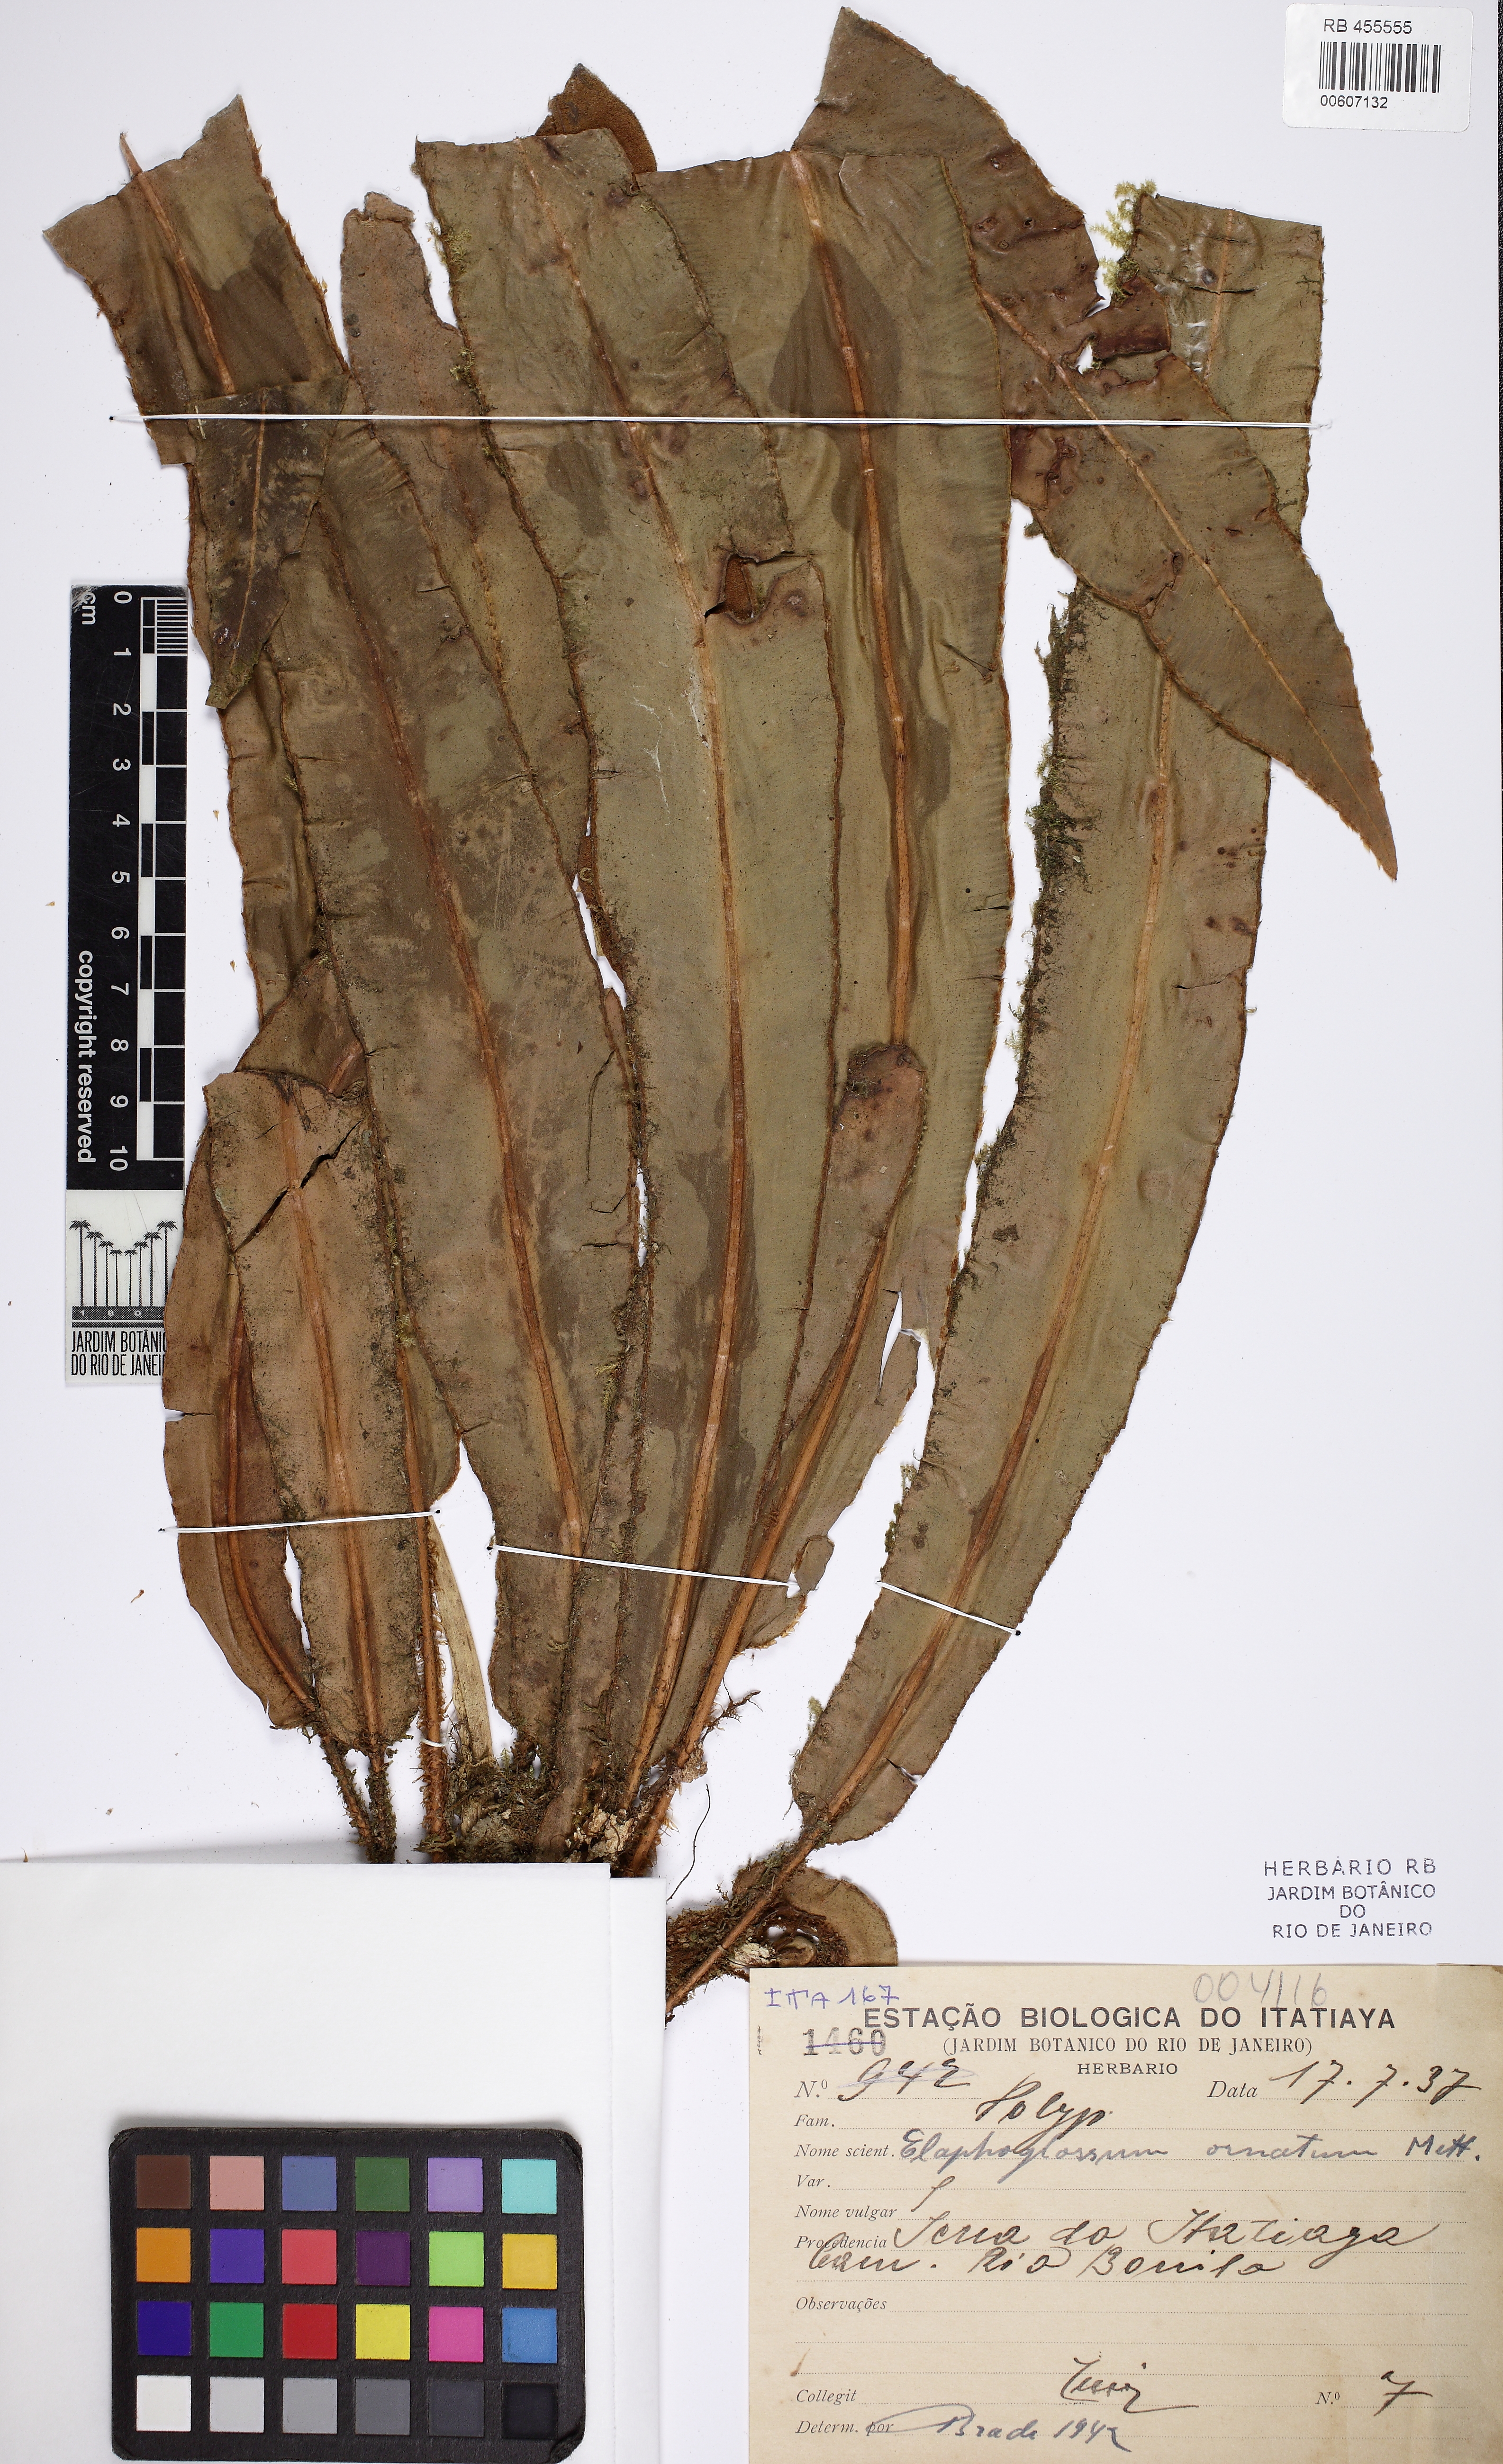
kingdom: Plantae
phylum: Tracheophyta
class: Polypodiopsida
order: Polypodiales
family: Dryopteridaceae
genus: Elaphoglossum
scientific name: Elaphoglossum glaziovii
